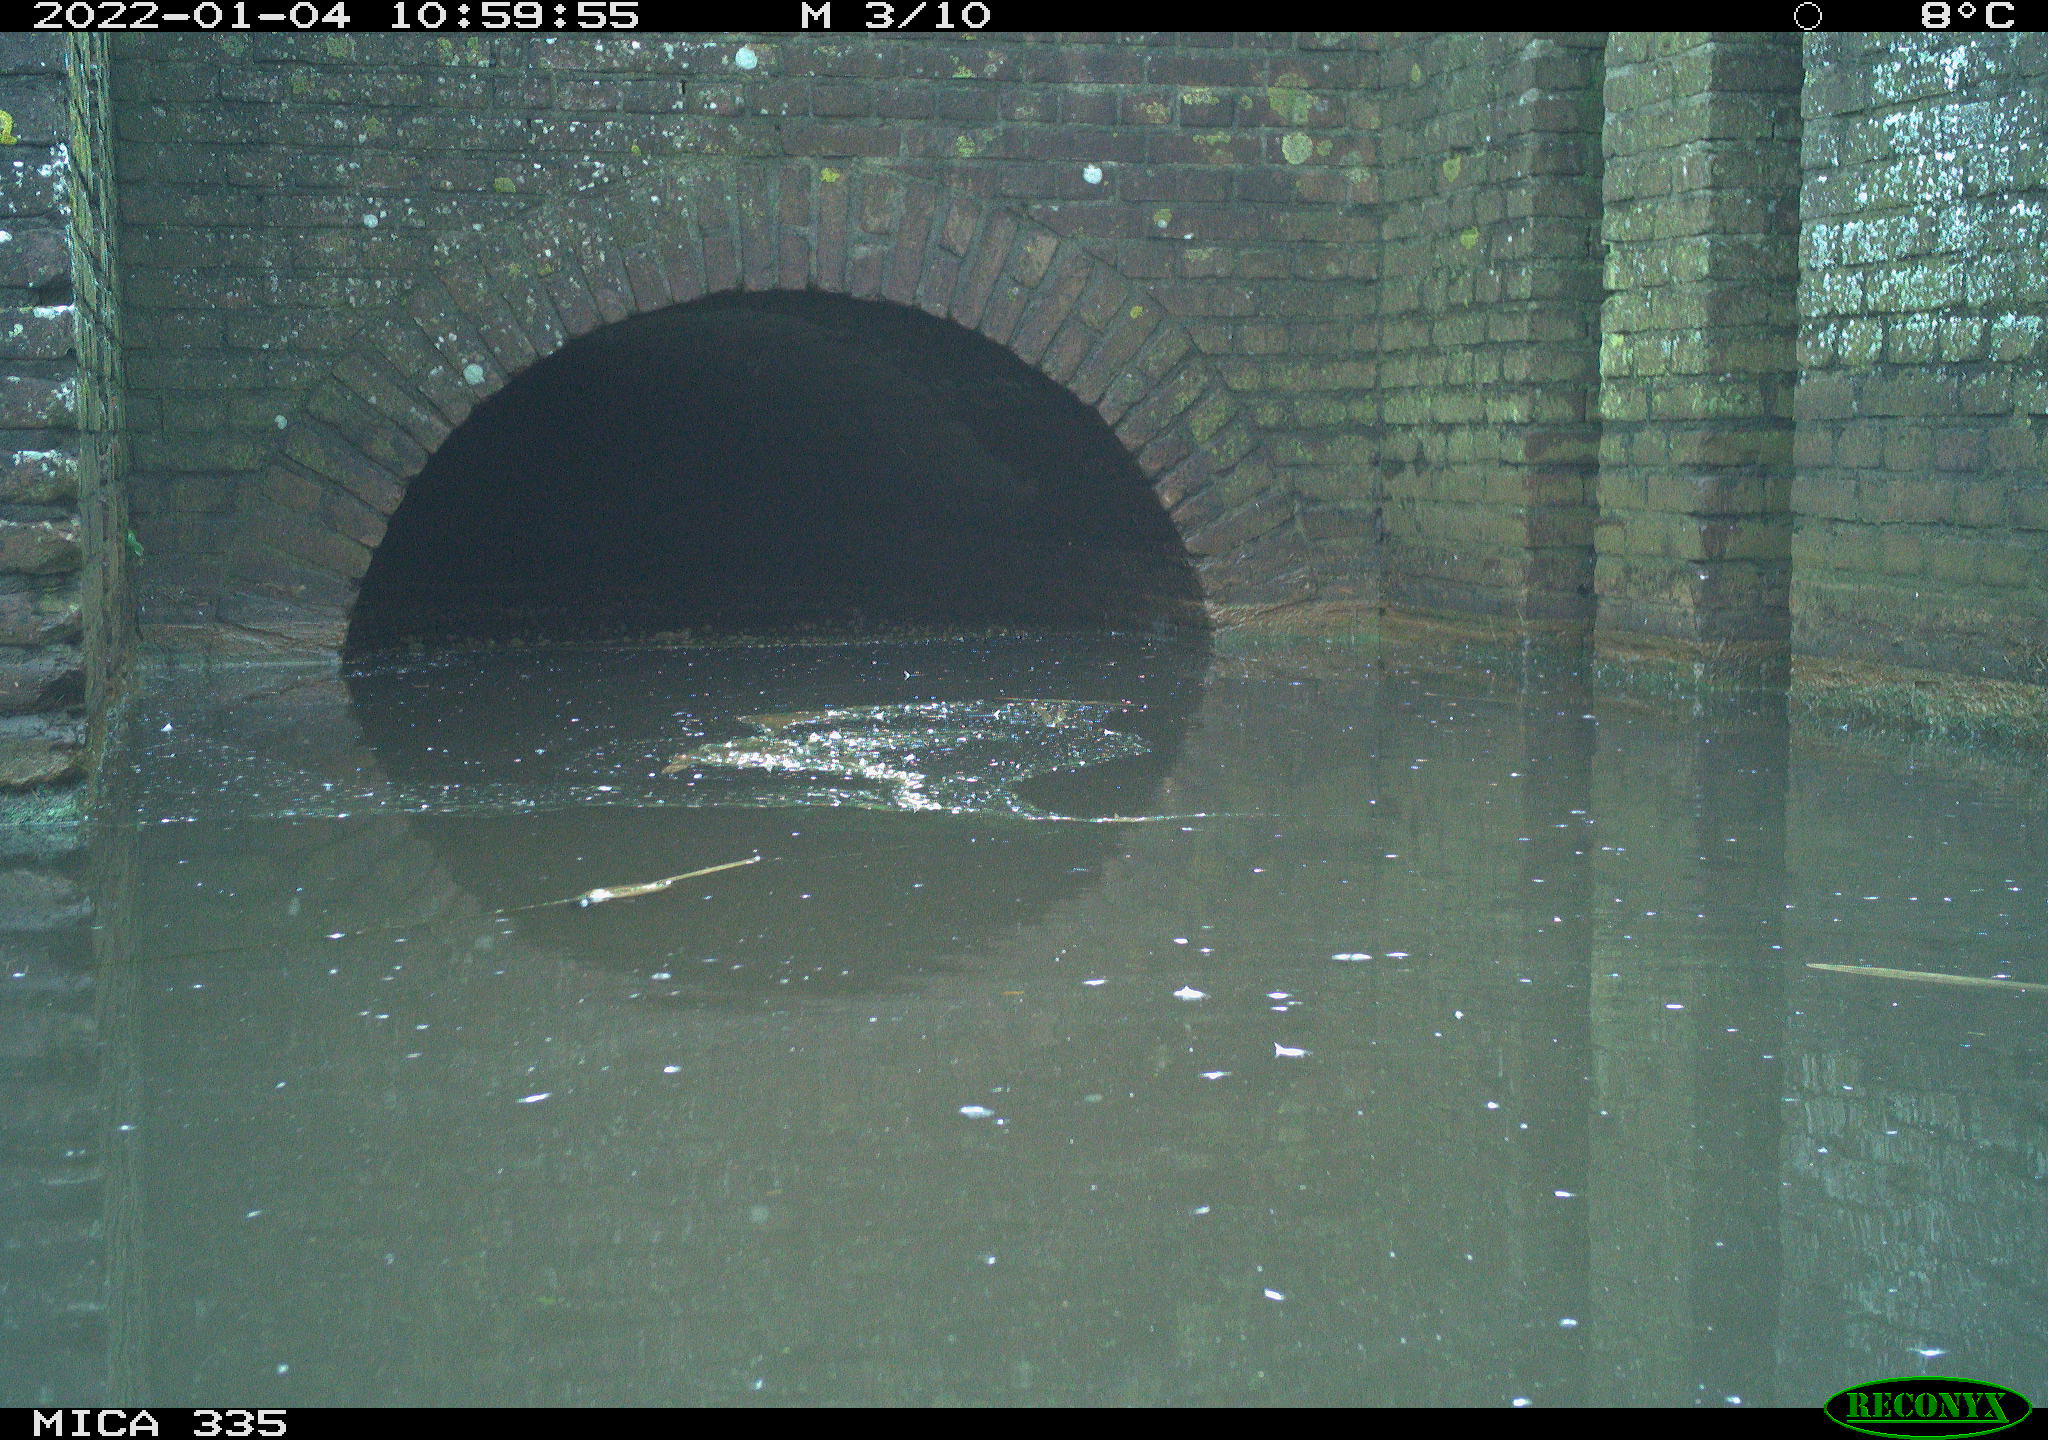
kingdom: Animalia
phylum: Chordata
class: Aves
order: Gruiformes
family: Rallidae
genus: Gallinula
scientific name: Gallinula chloropus
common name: Common moorhen
